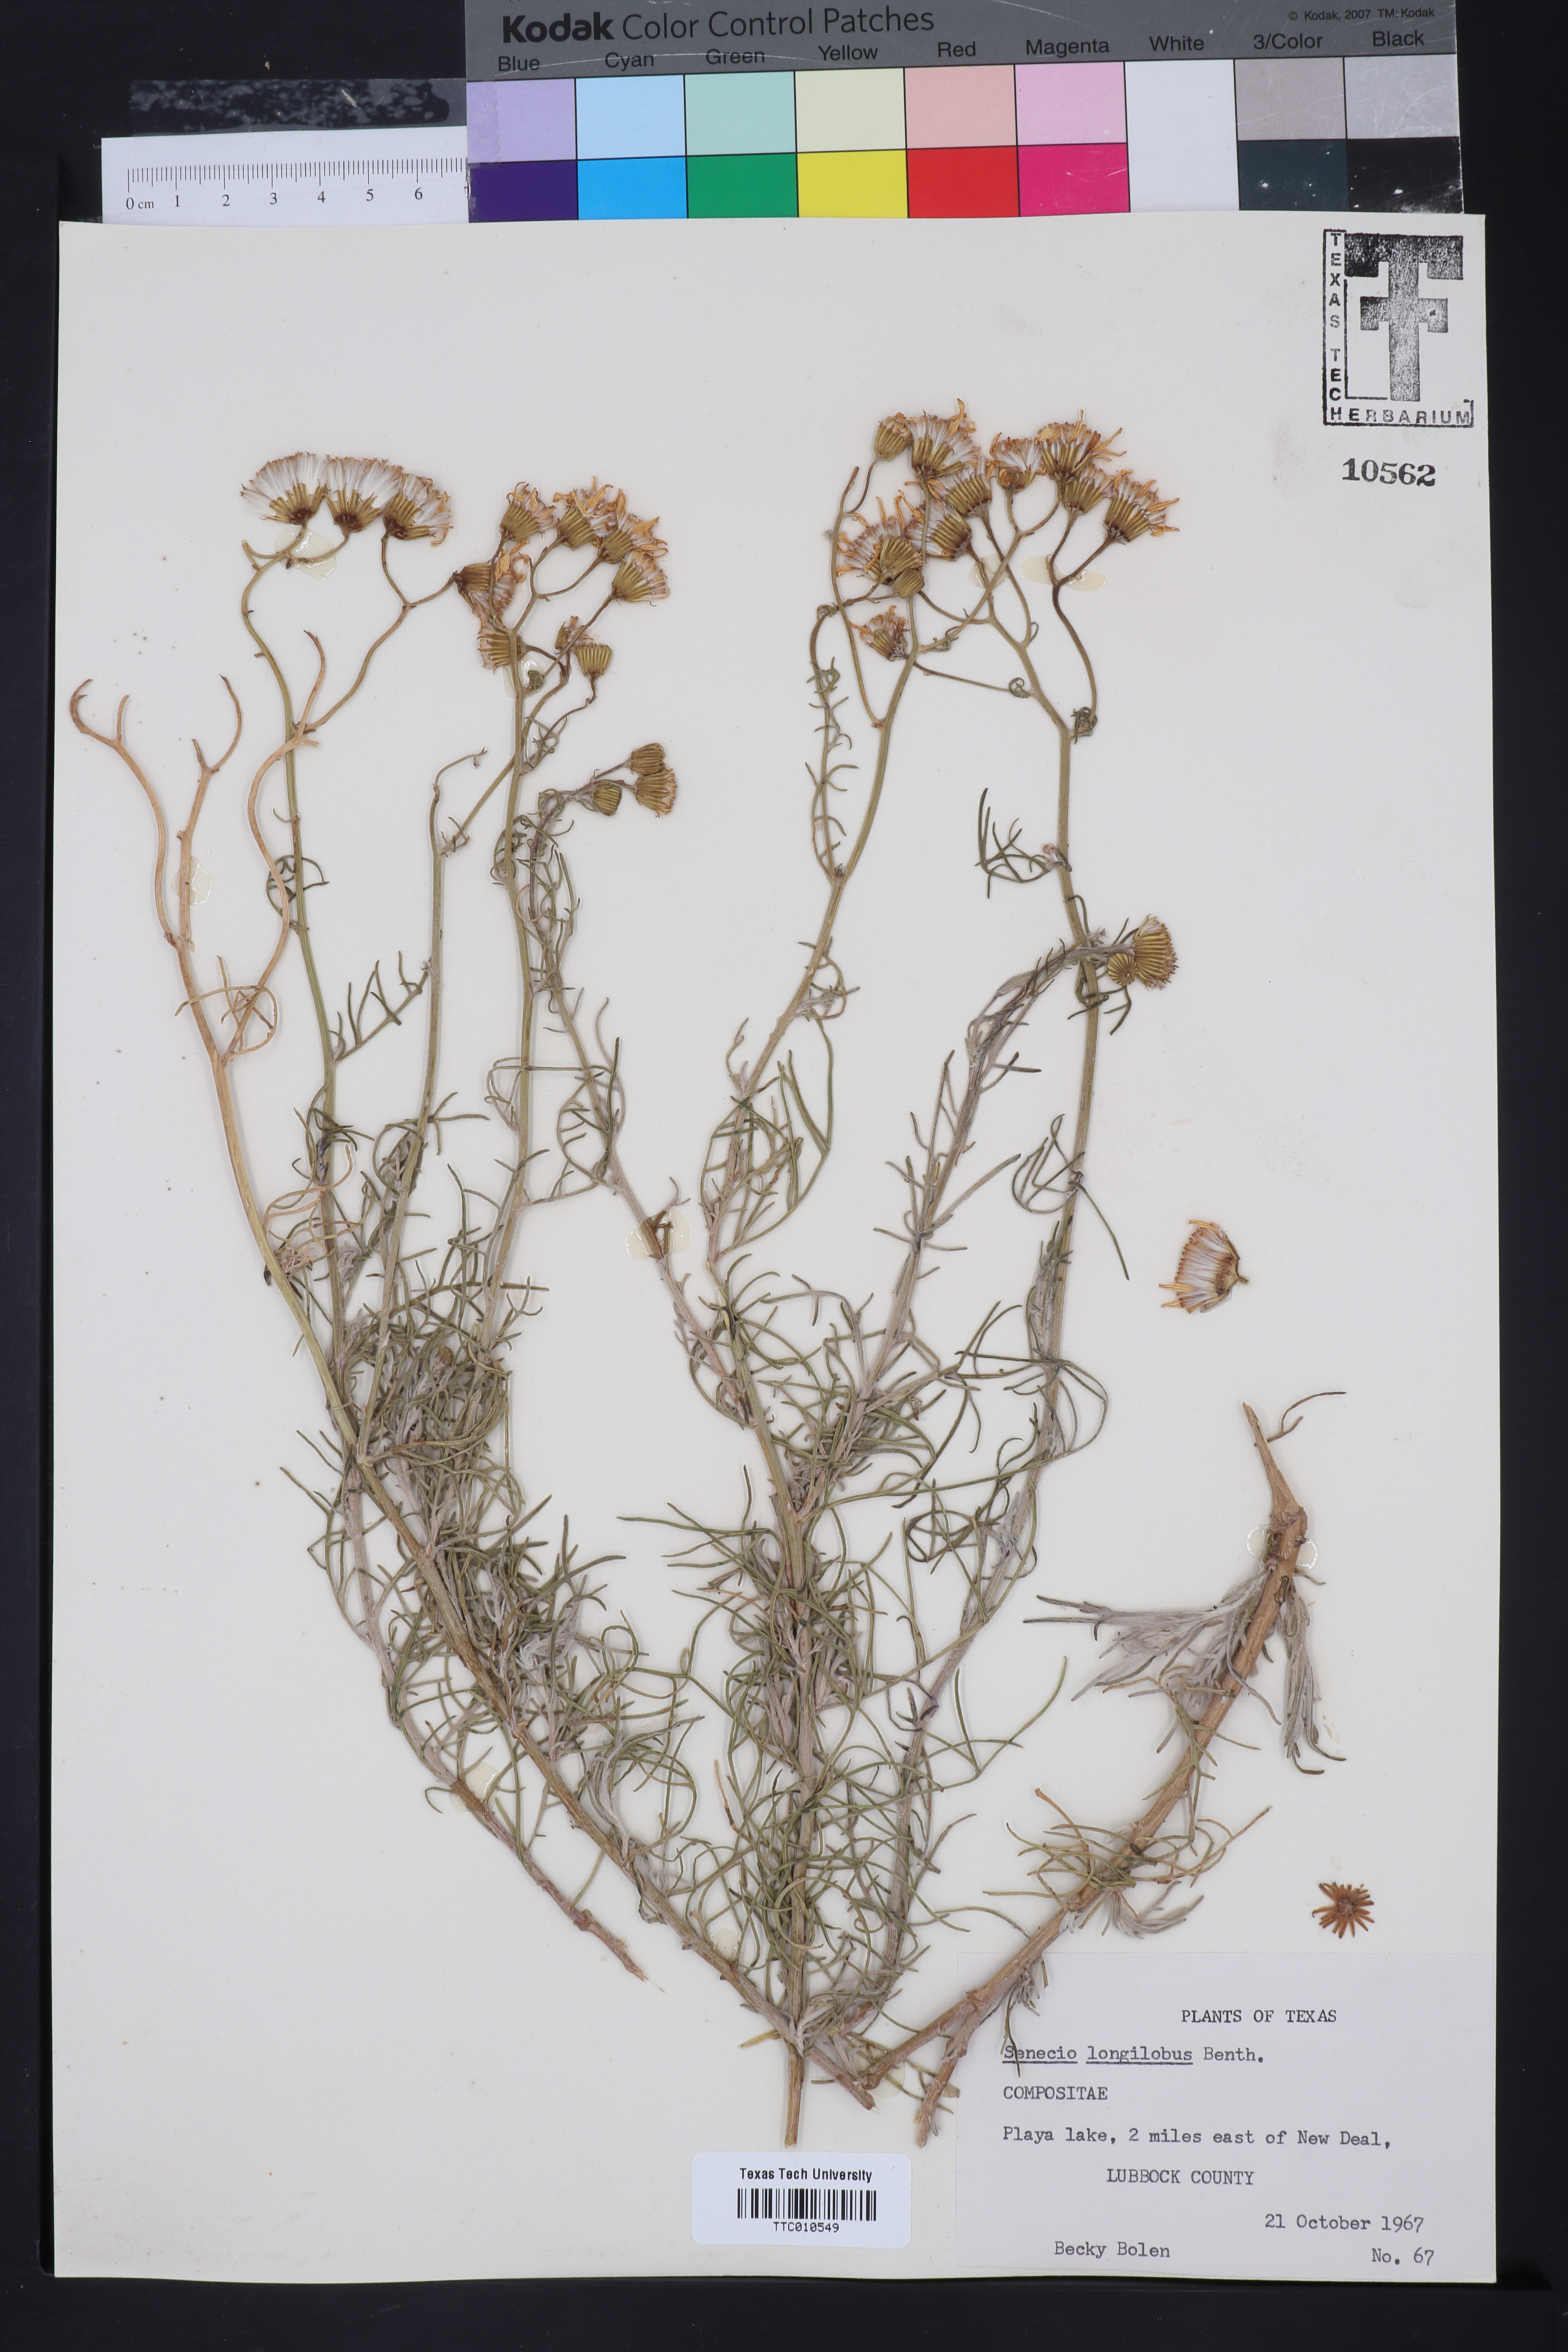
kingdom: Plantae
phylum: Tracheophyta
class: Magnoliopsida
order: Asterales
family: Asteraceae
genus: Senecio
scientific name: Senecio flaccidus
